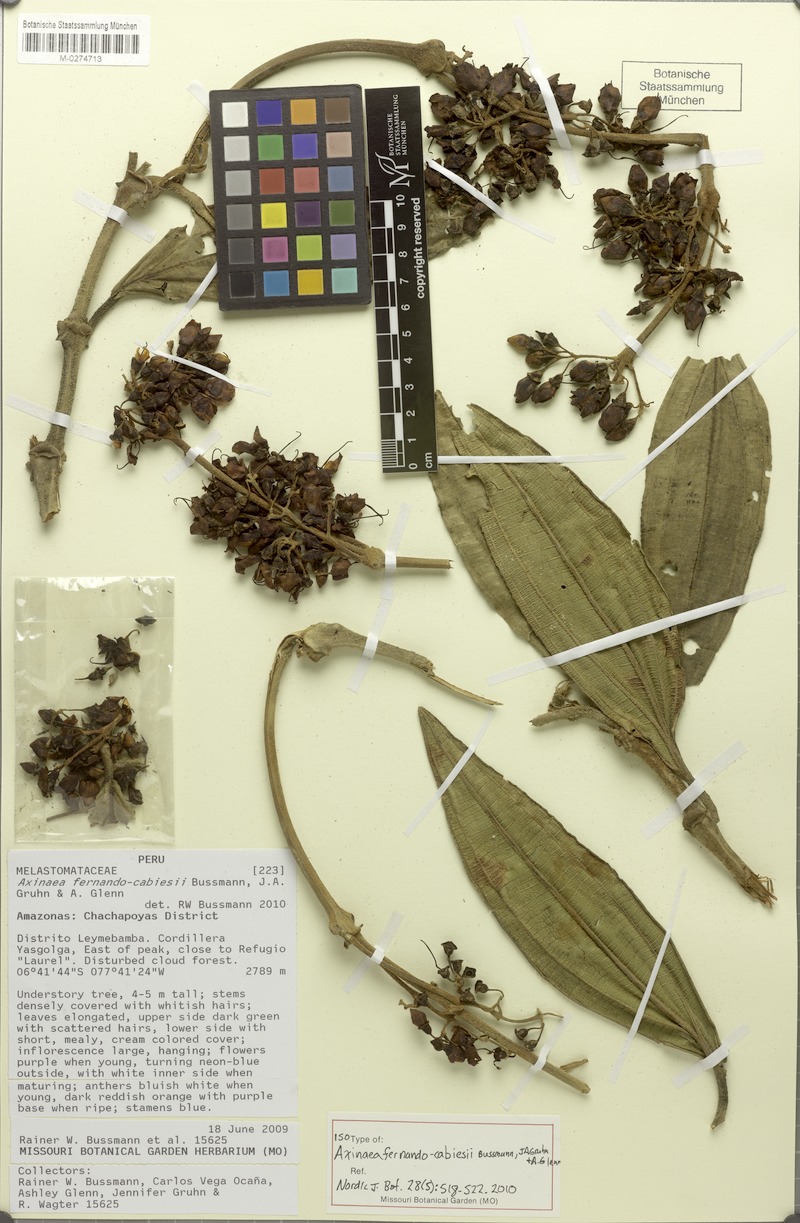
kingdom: Plantae
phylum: Tracheophyta
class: Magnoliopsida
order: Myrtales
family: Melastomataceae
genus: Axinaea
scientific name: Axinaea fernando-cabiesii
